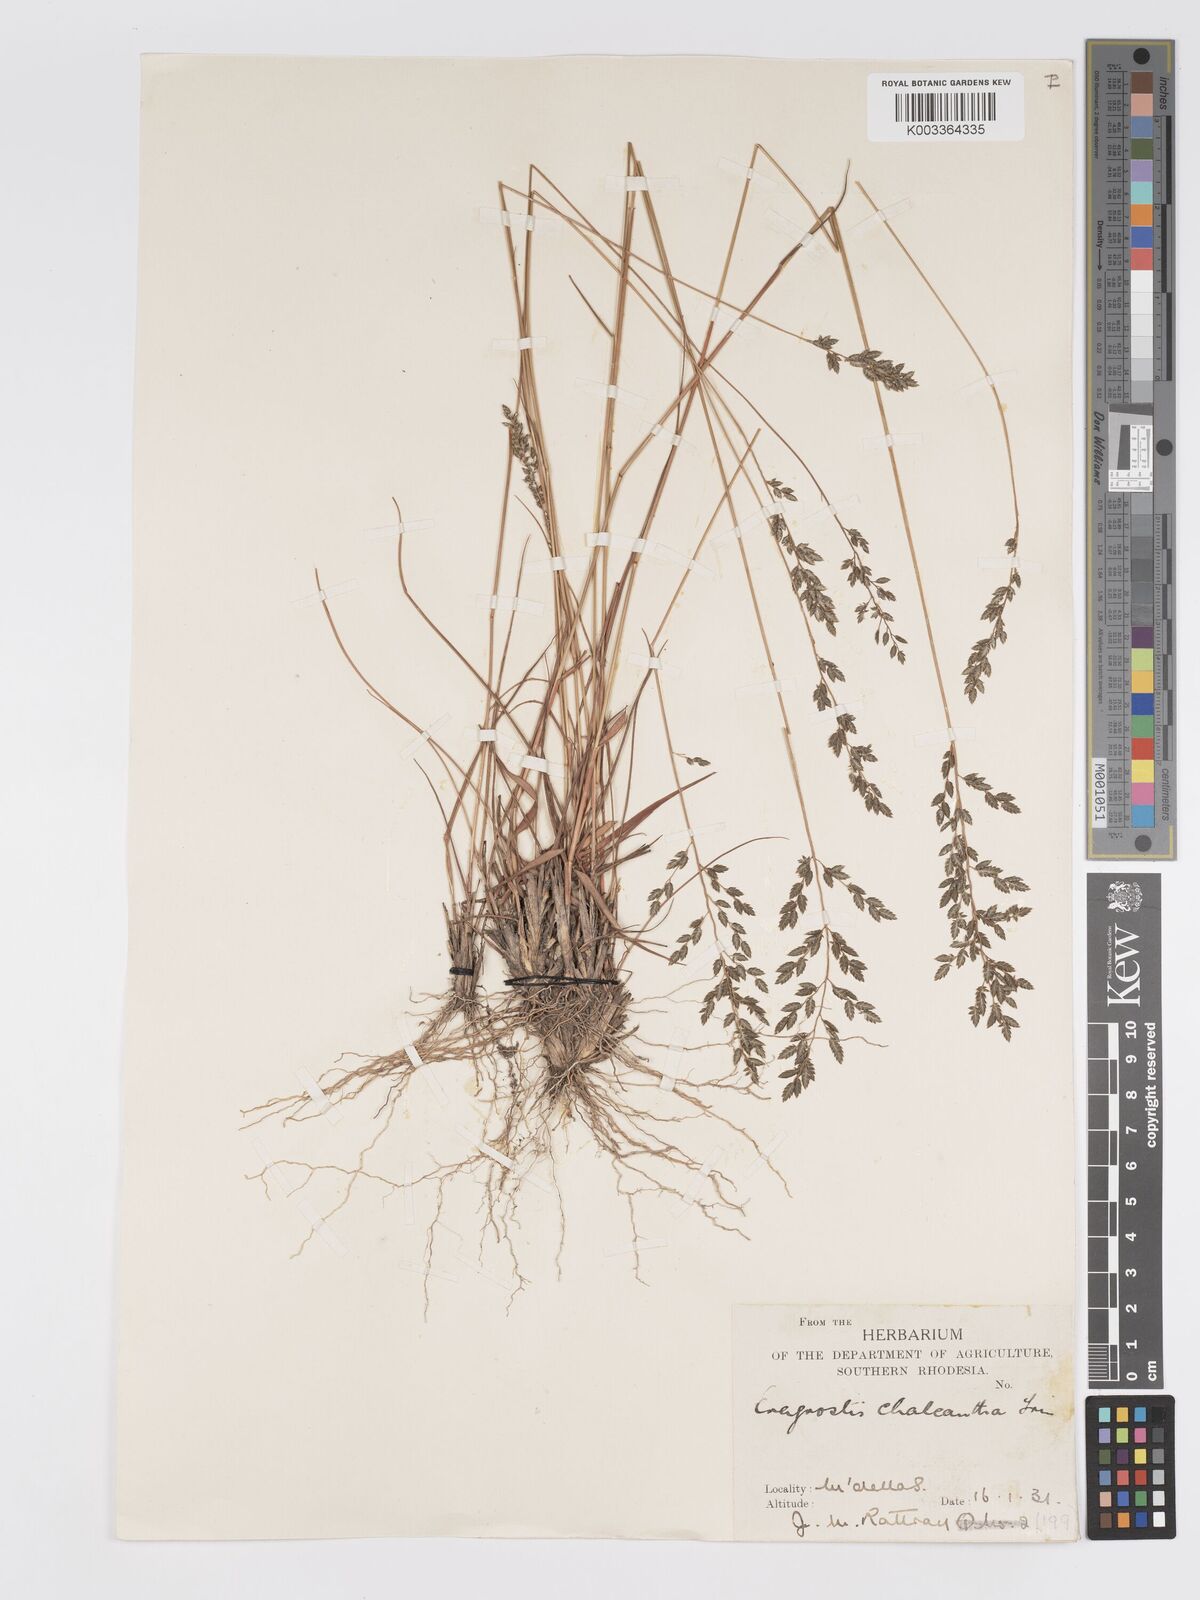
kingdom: Plantae
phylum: Tracheophyta
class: Liliopsida
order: Poales
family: Poaceae
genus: Eragrostis
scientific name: Eragrostis racemosa
